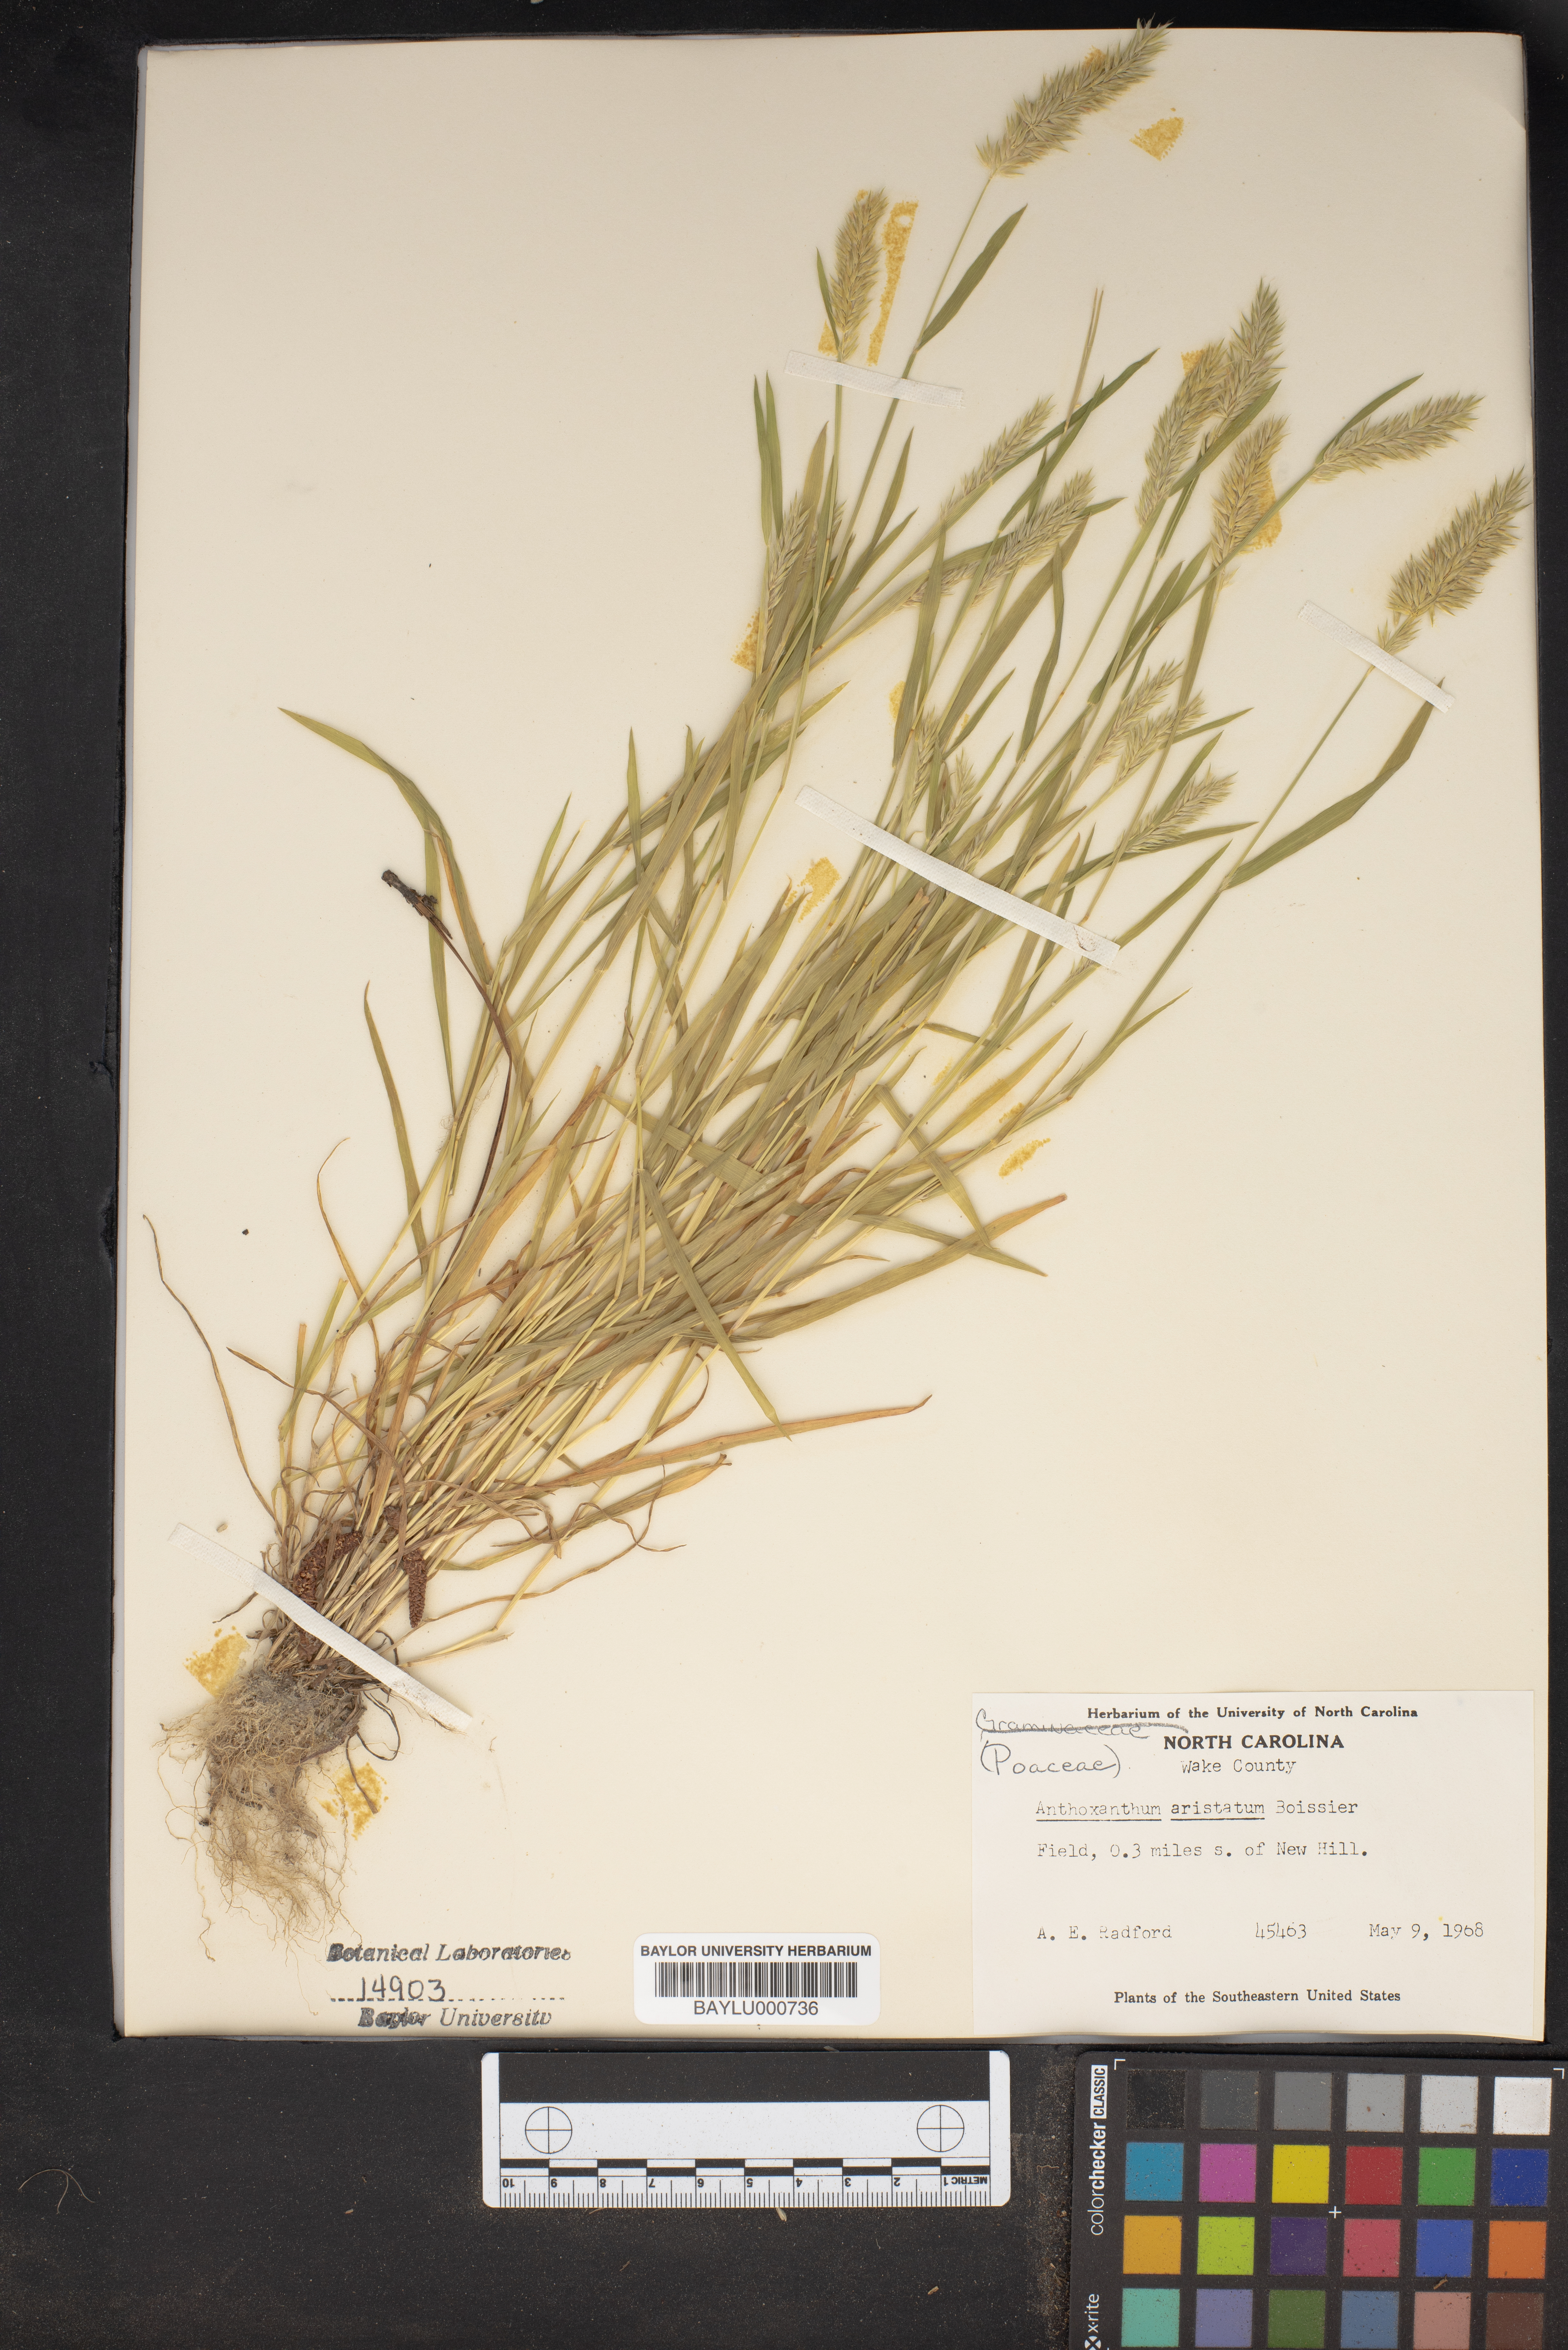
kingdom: Plantae
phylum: Tracheophyta
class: Liliopsida
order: Poales
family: Poaceae
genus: Anthoxanthum
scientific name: Anthoxanthum aristatum
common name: Annual vernal-grass
